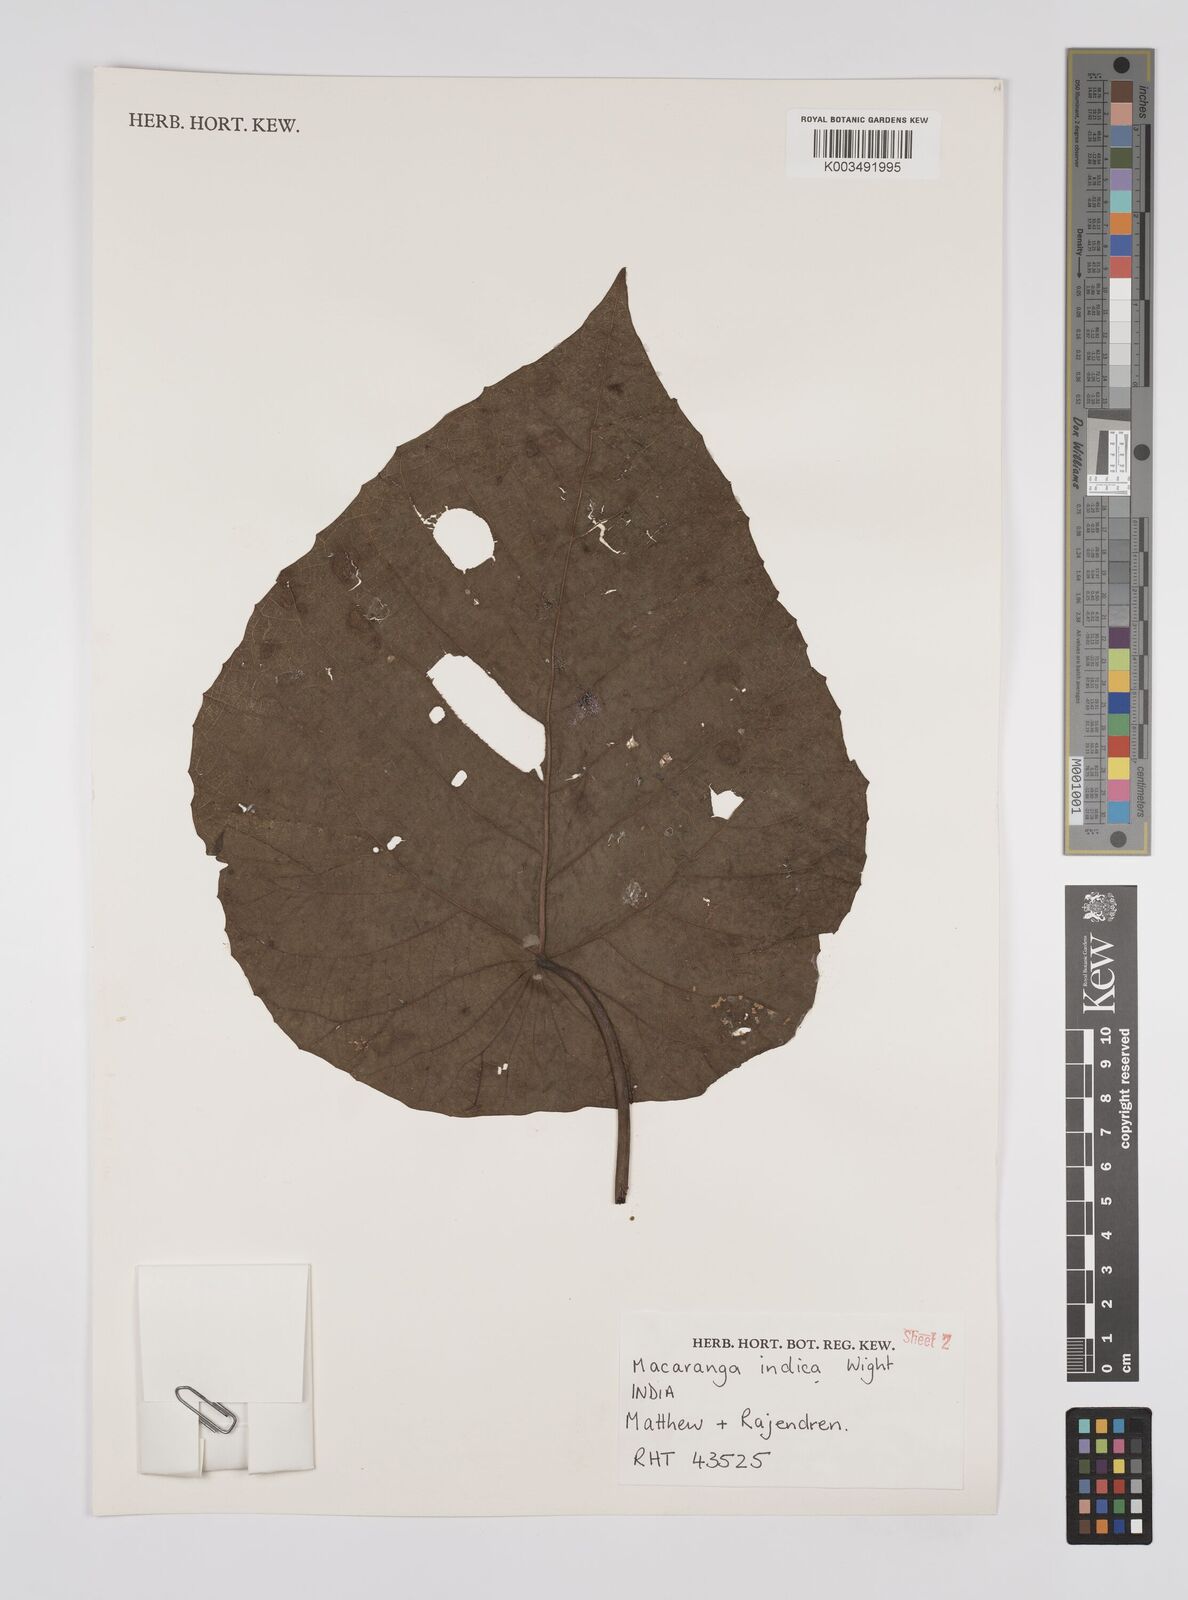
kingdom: Plantae
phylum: Tracheophyta
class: Magnoliopsida
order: Malpighiales
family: Euphorbiaceae
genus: Macaranga
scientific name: Macaranga indica
